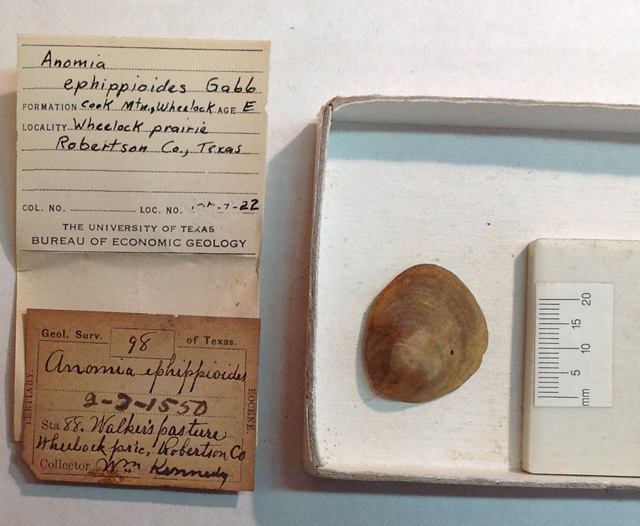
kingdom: Animalia
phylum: Mollusca
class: Bivalvia
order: Pectinida
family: Anomiidae
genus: Anomia
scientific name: Anomia ephippioides
